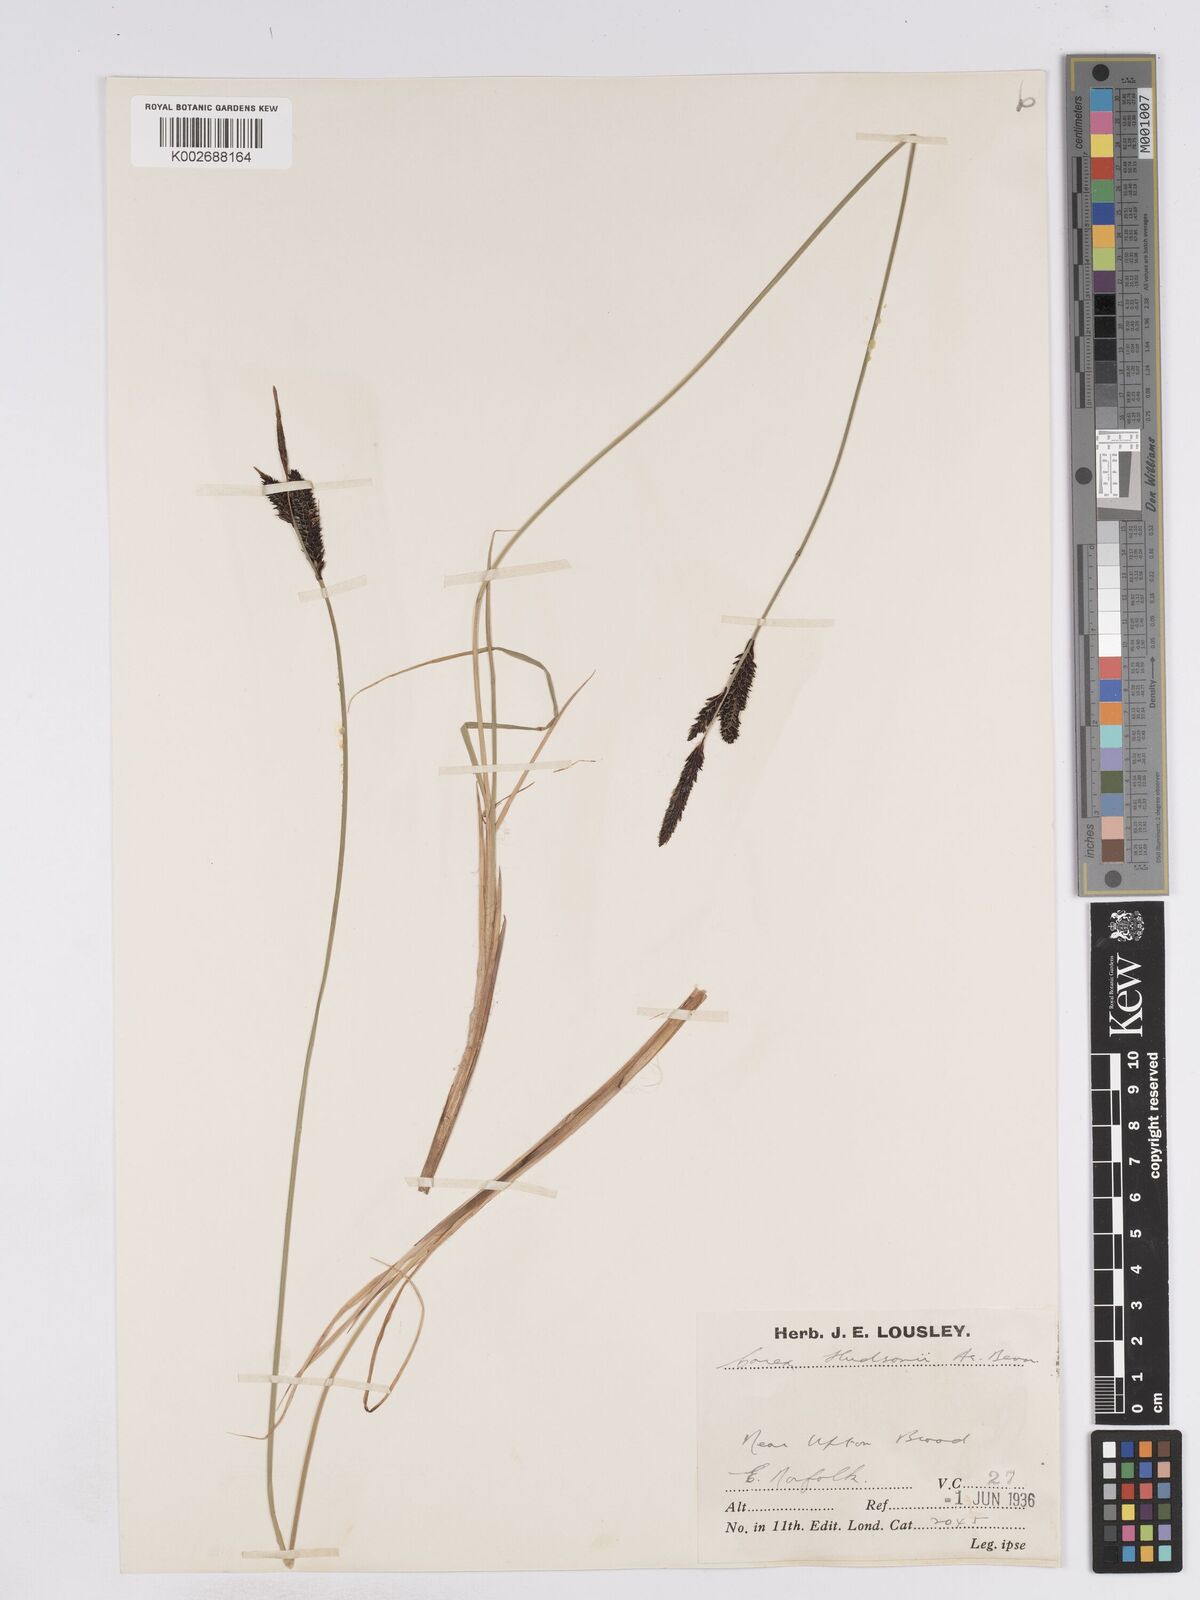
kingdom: Plantae
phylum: Tracheophyta
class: Liliopsida
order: Poales
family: Cyperaceae
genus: Carex
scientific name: Carex elata
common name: Tufted sedge
